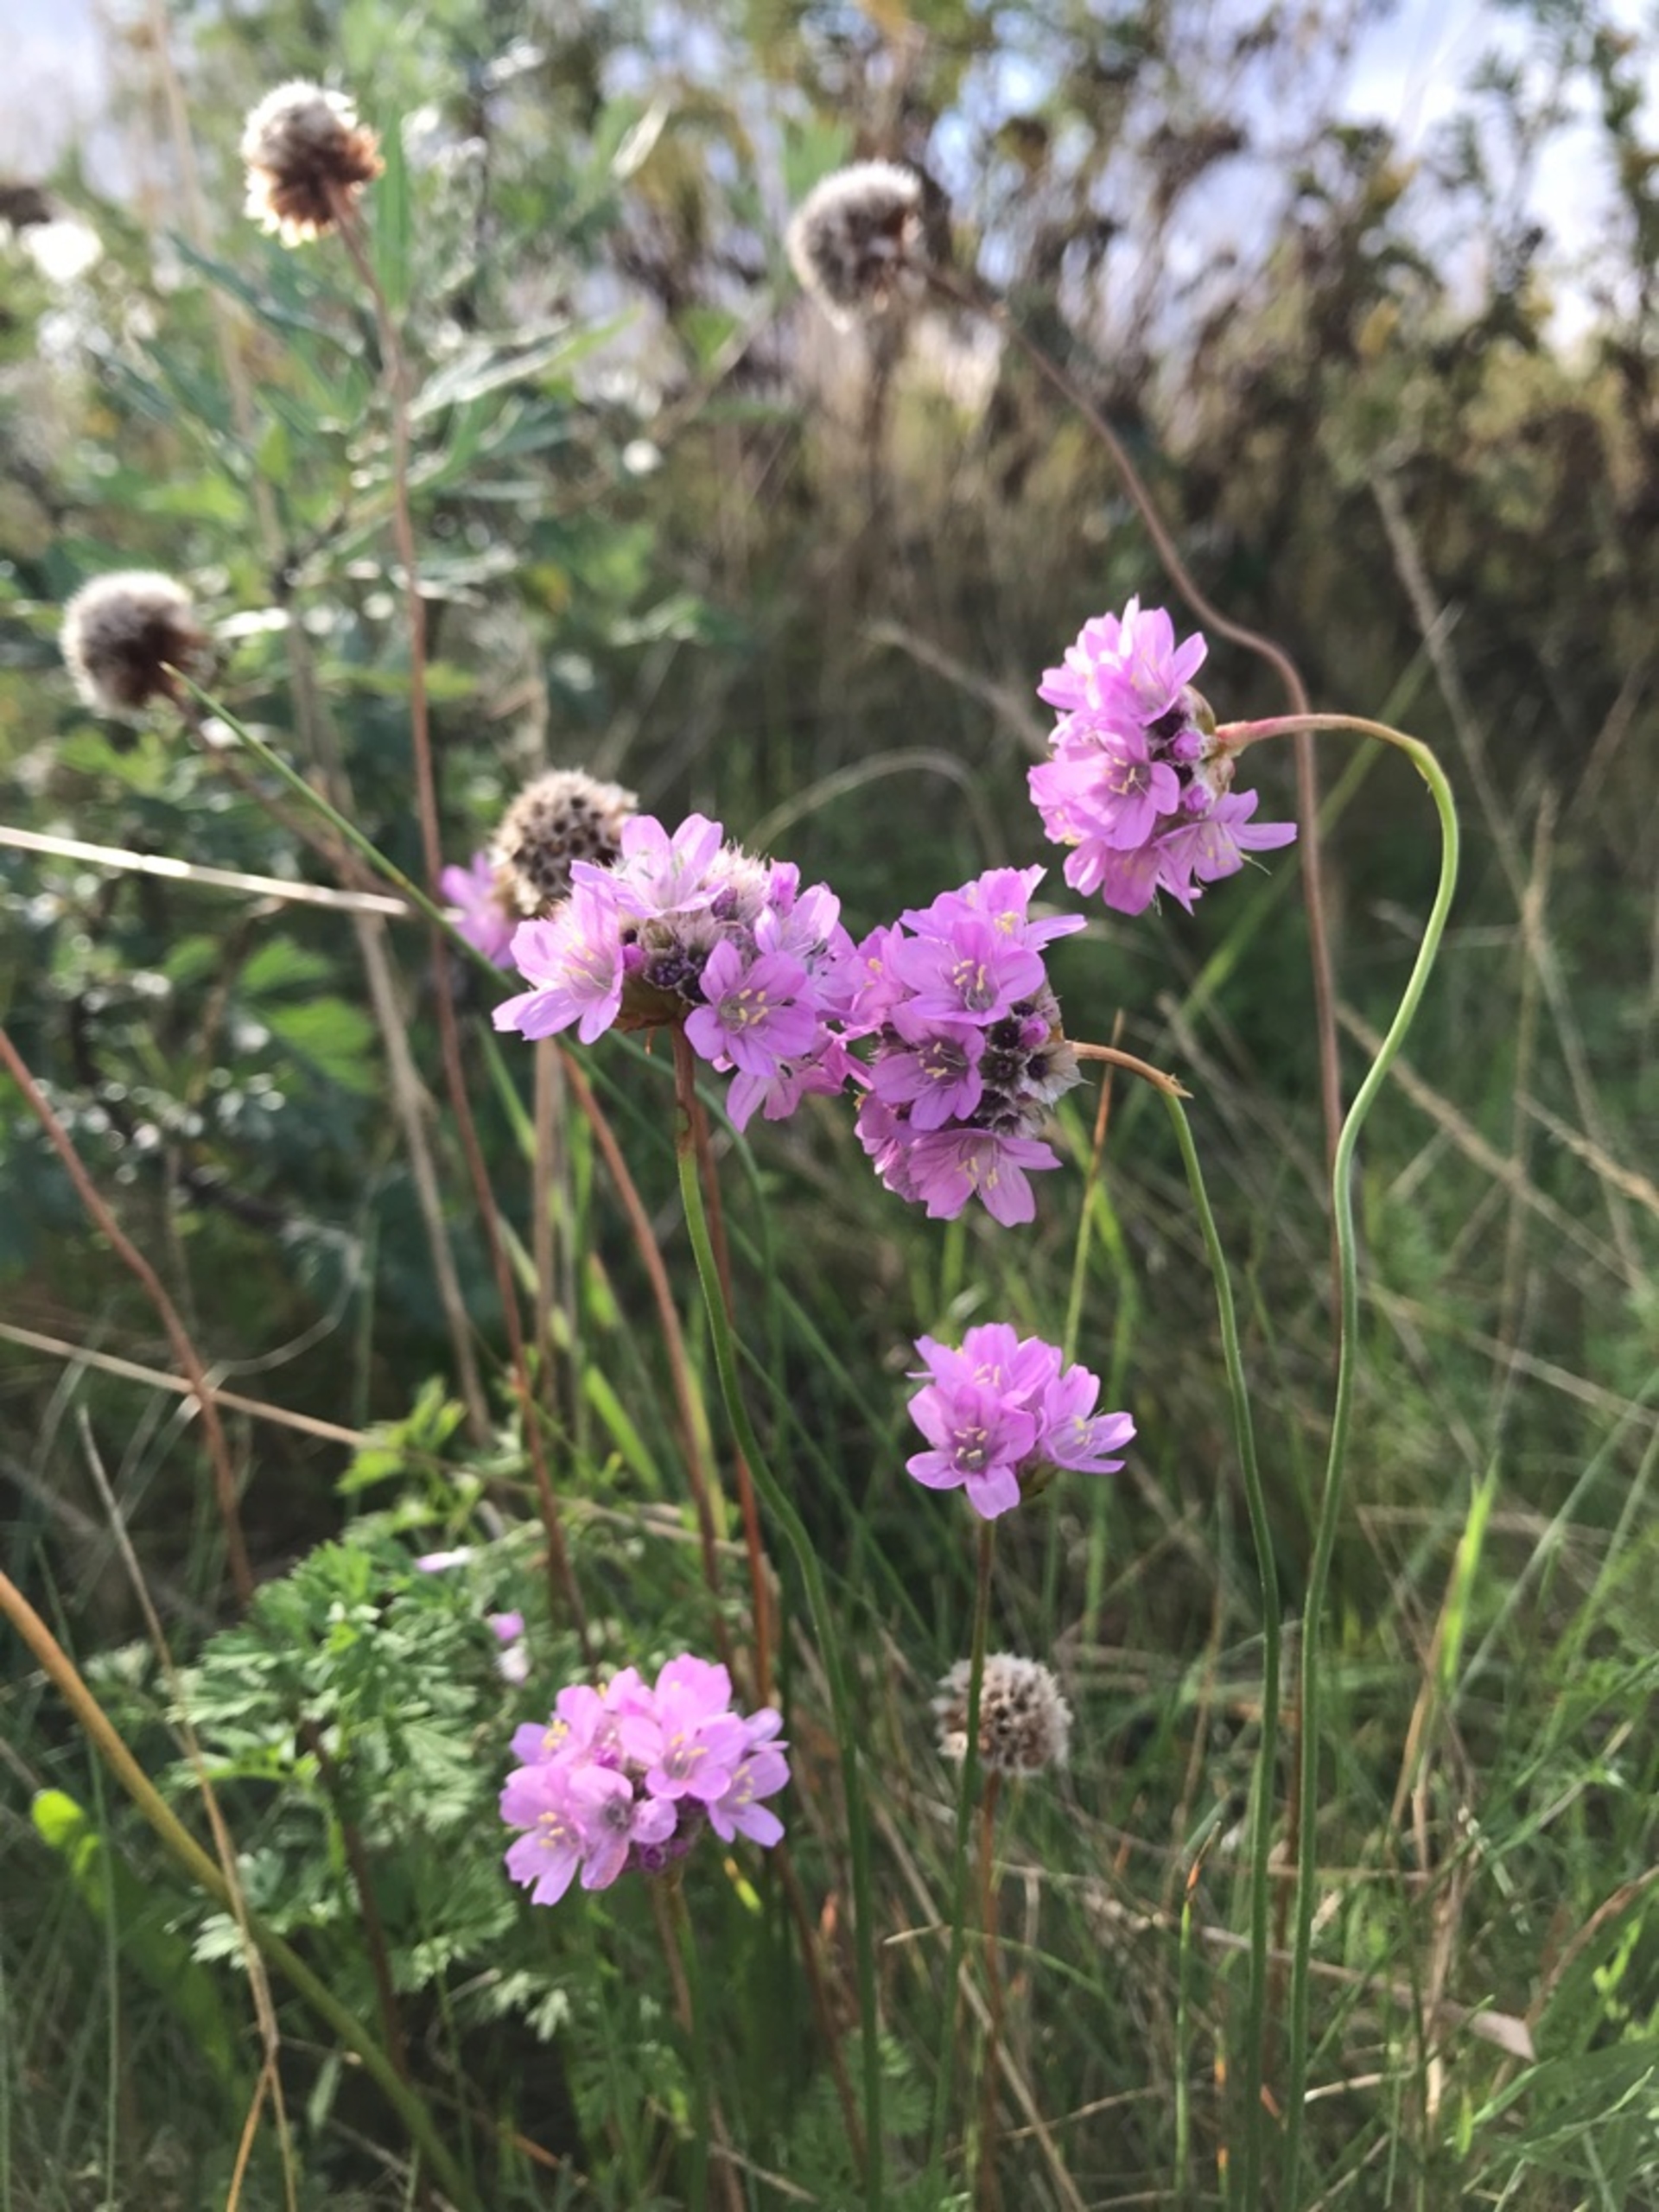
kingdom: Plantae
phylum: Tracheophyta
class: Magnoliopsida
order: Caryophyllales
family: Plumbaginaceae
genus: Armeria
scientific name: Armeria maritima
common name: Vej-engelskgræs
